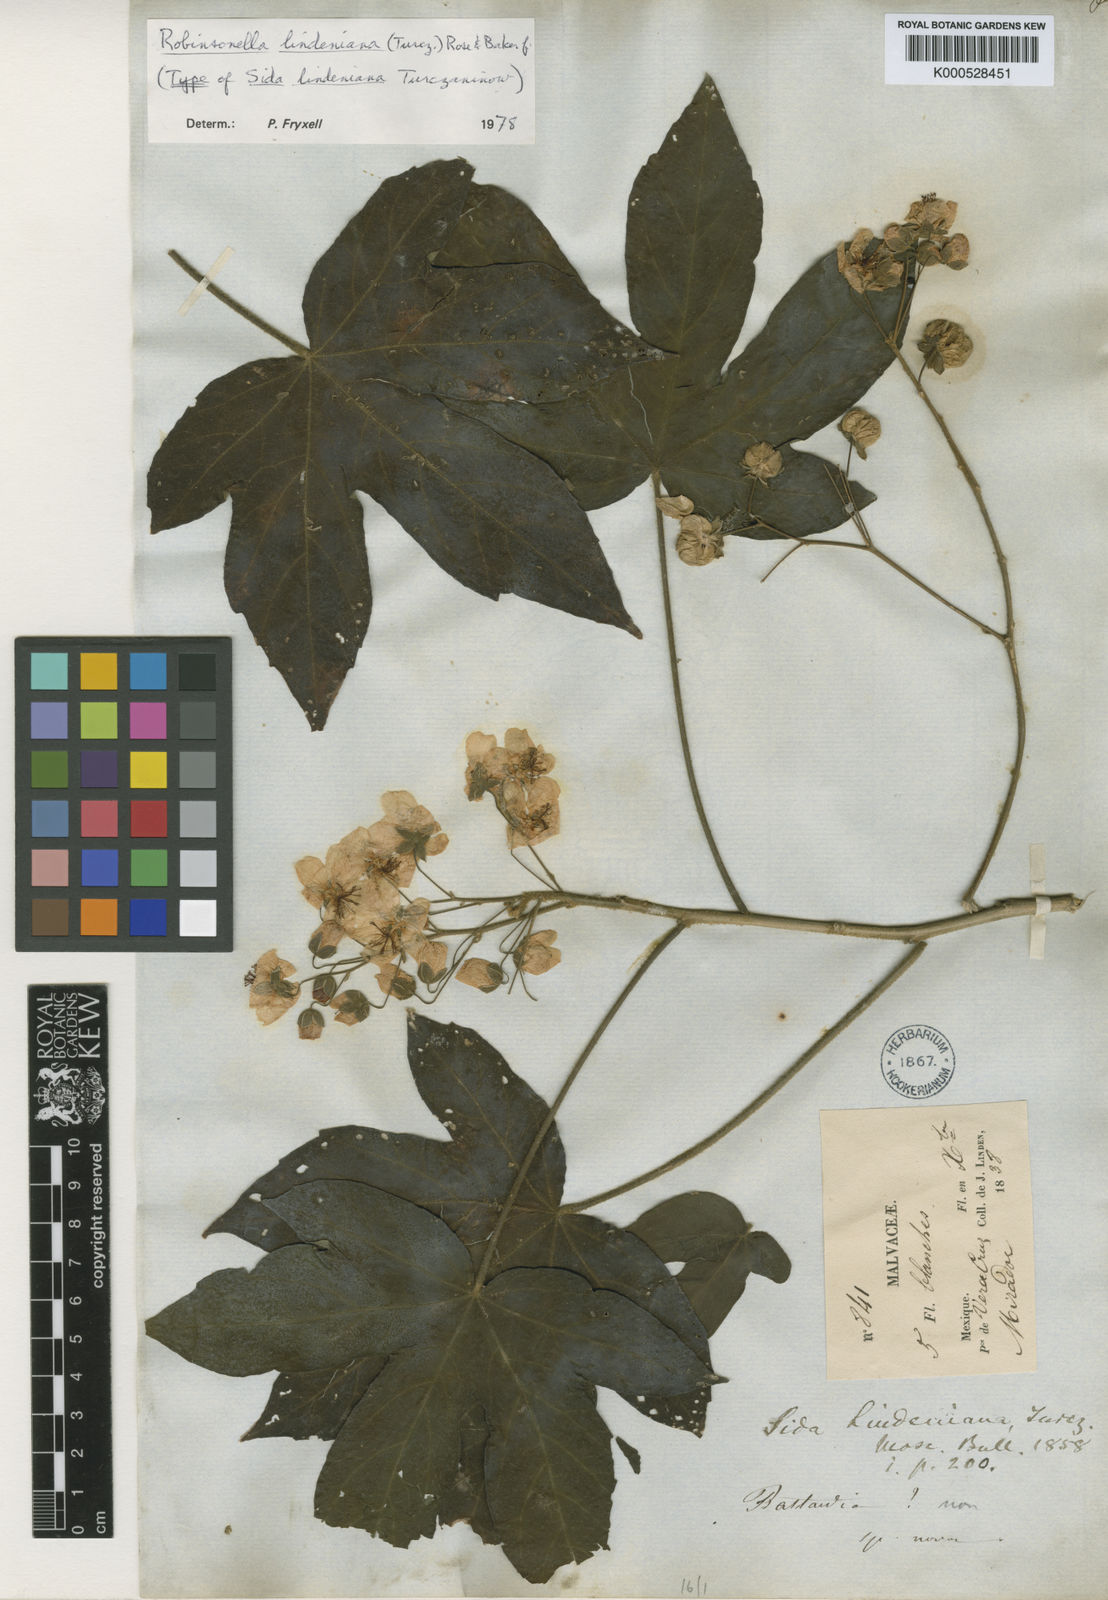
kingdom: Plantae
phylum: Tracheophyta
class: Magnoliopsida
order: Malvales
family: Malvaceae
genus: Robinsonella
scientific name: Robinsonella lindeniana
